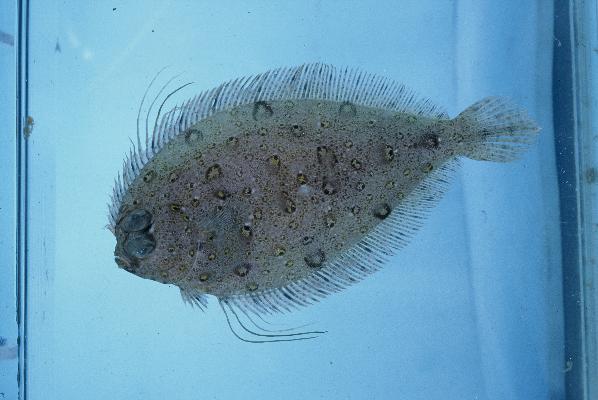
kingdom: Animalia
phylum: Chordata
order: Pleuronectiformes
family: Bothidae
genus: Taeniopsetta
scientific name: Taeniopsetta ocellata
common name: Indo-pacific ocellated flounder
